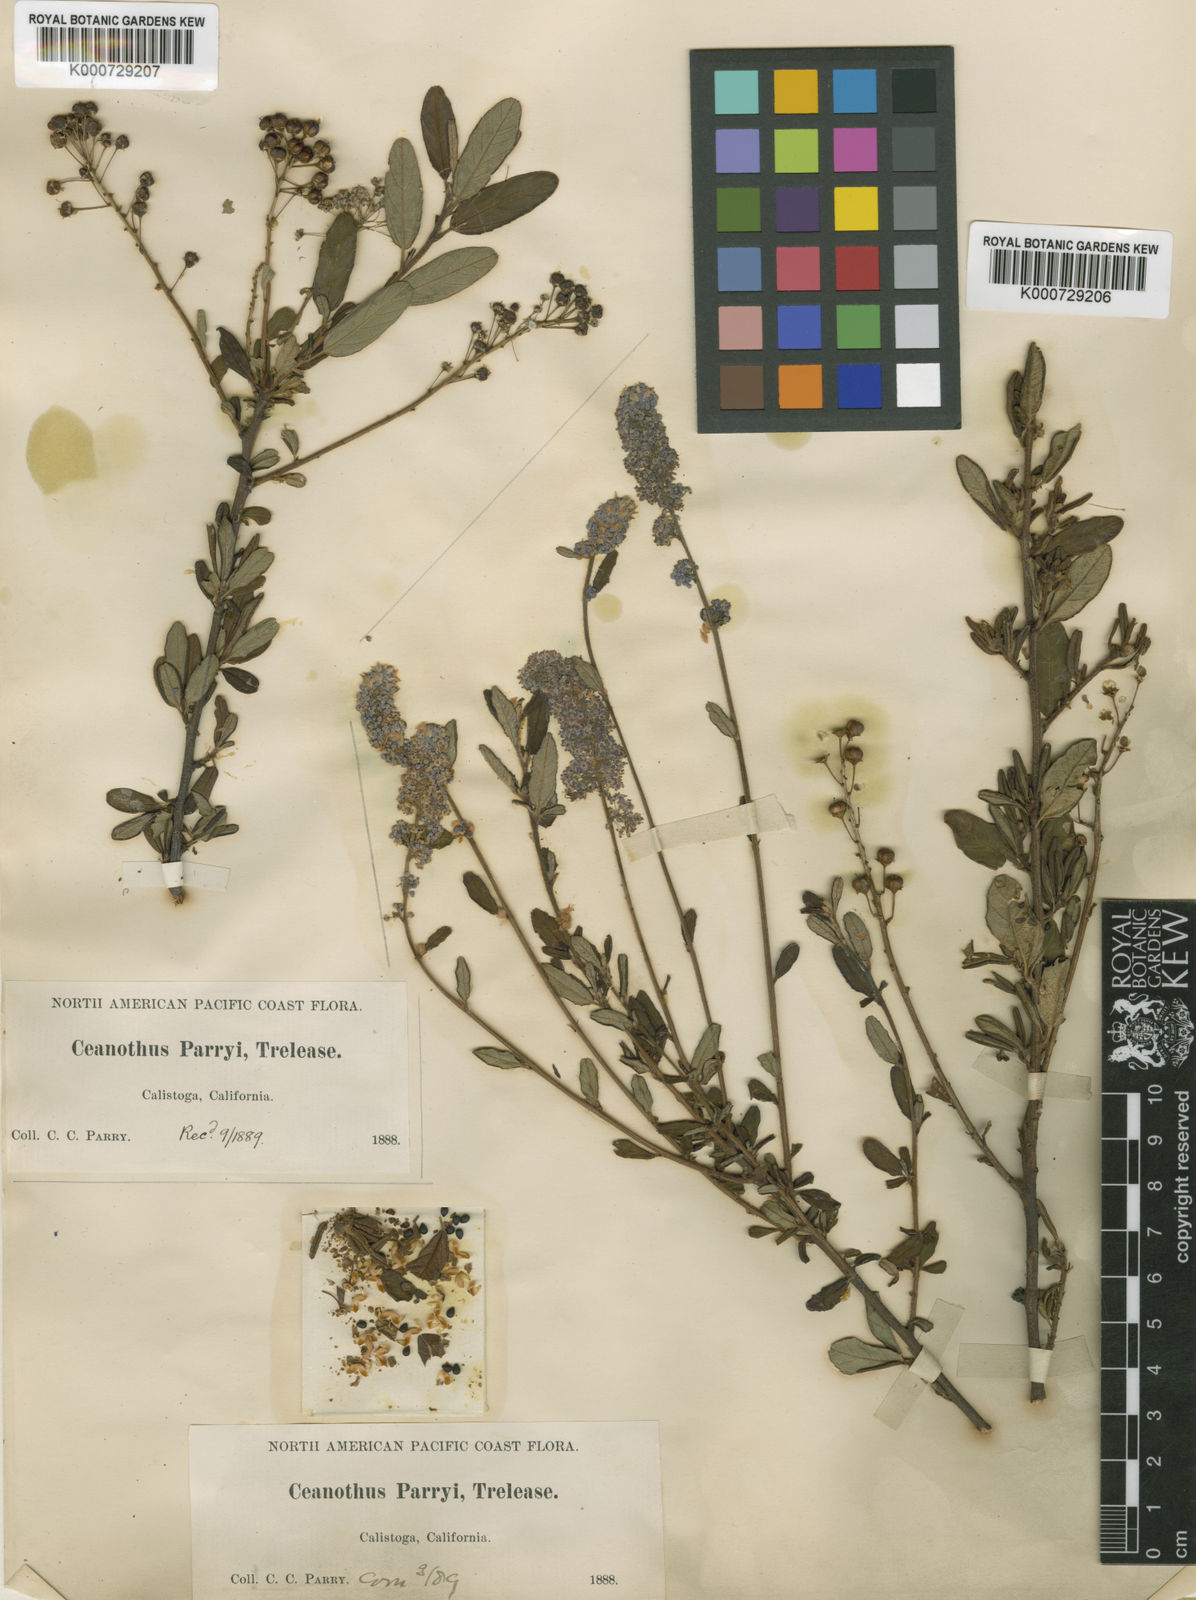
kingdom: Plantae
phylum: Tracheophyta
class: Magnoliopsida
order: Rosales
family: Rhamnaceae
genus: Ceanothus
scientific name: Ceanothus parryi
